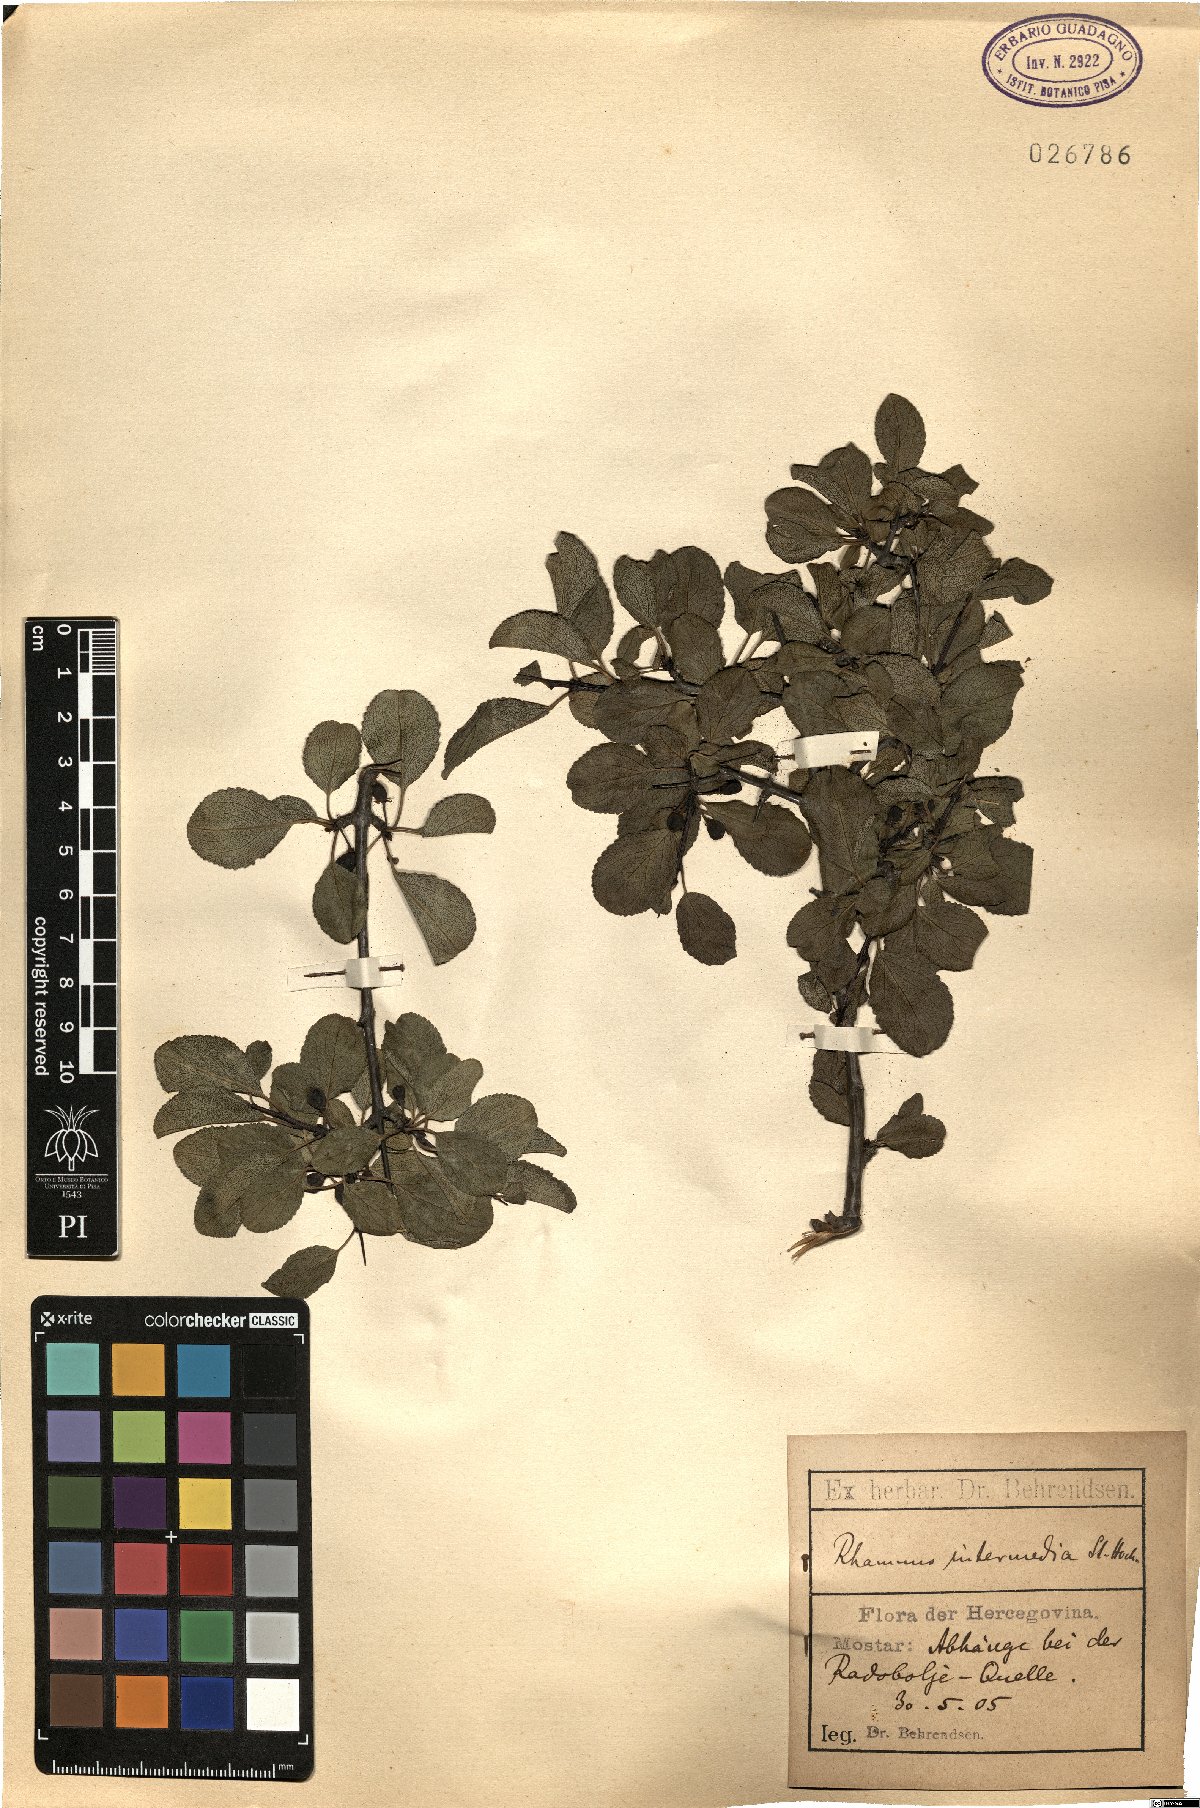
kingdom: Plantae
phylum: Tracheophyta
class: Magnoliopsida
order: Rosales
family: Rhamnaceae
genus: Rhamnus
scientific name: Rhamnus intermedia
